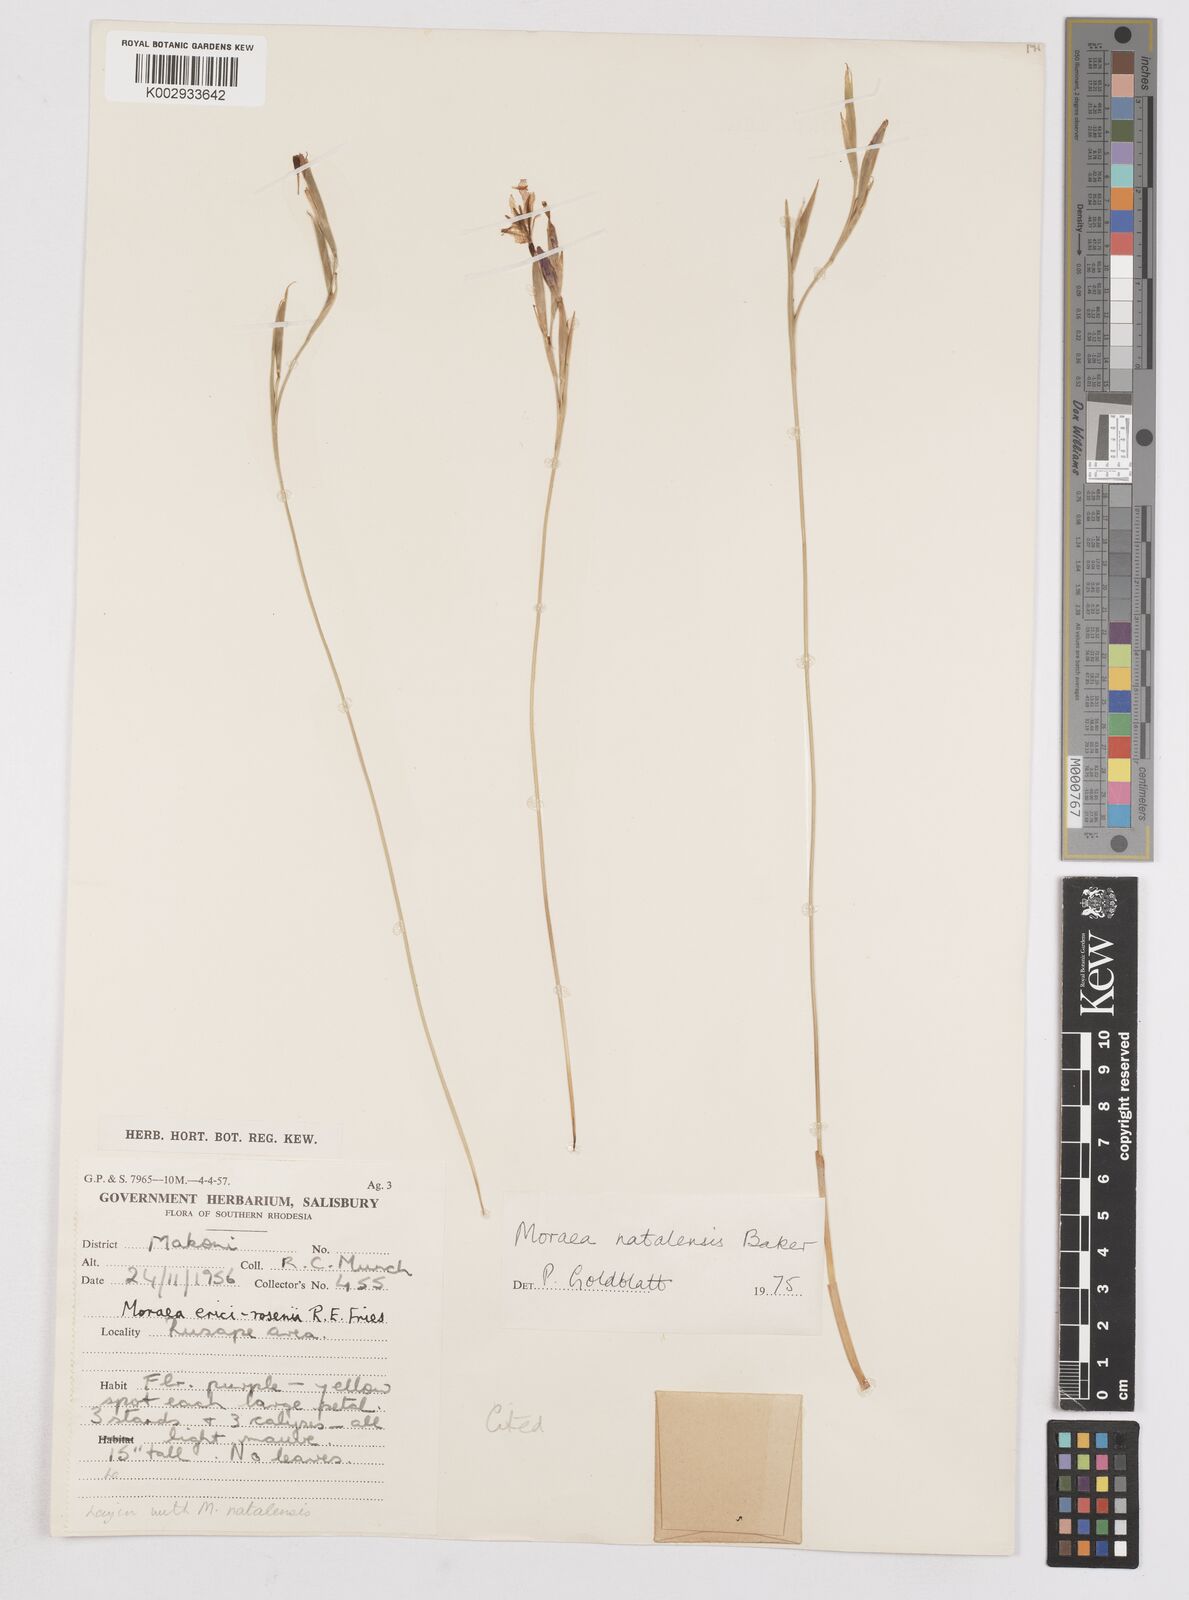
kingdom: Plantae
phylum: Tracheophyta
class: Liliopsida
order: Asparagales
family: Iridaceae
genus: Moraea
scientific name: Moraea natalensis
